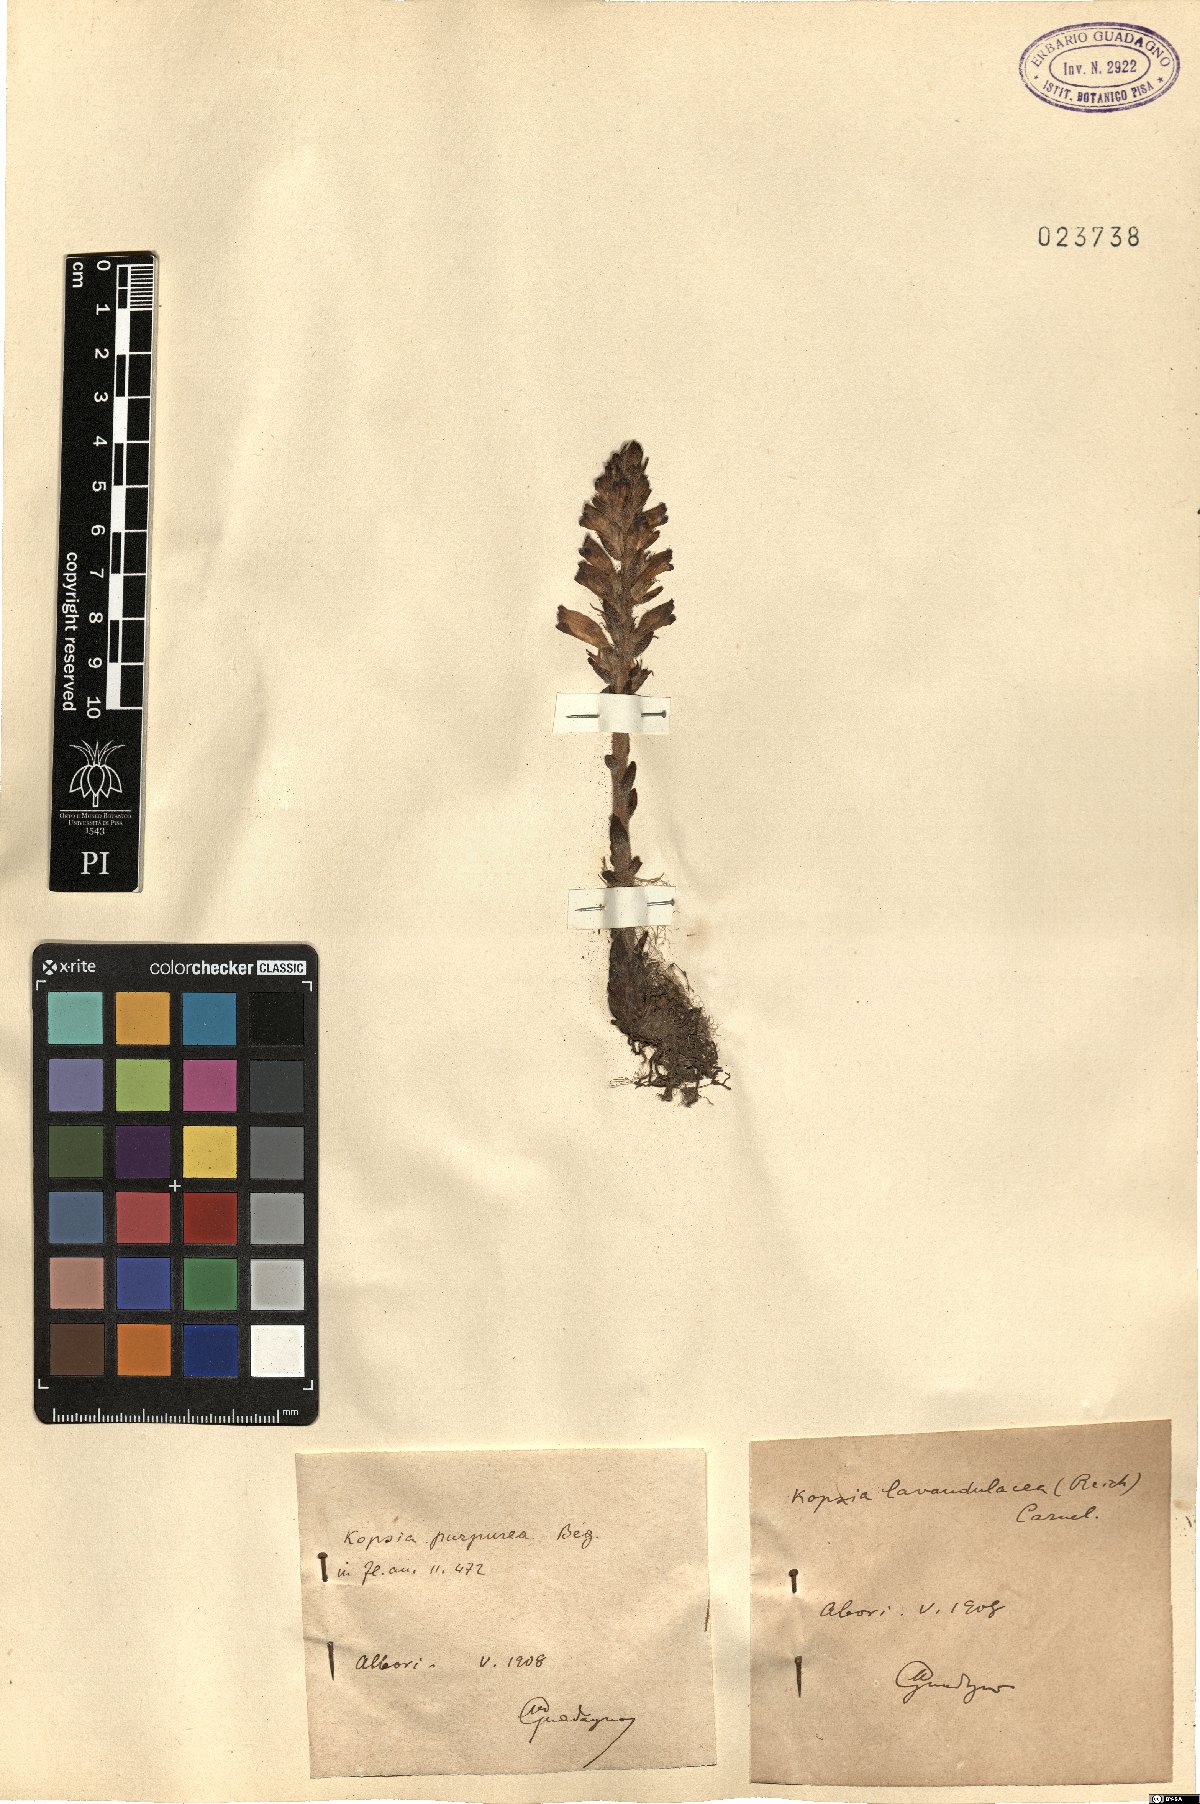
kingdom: Plantae
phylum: Tracheophyta
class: Magnoliopsida
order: Lamiales
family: Orobanchaceae
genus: Phelipanche
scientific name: Phelipanche lavandulacea
